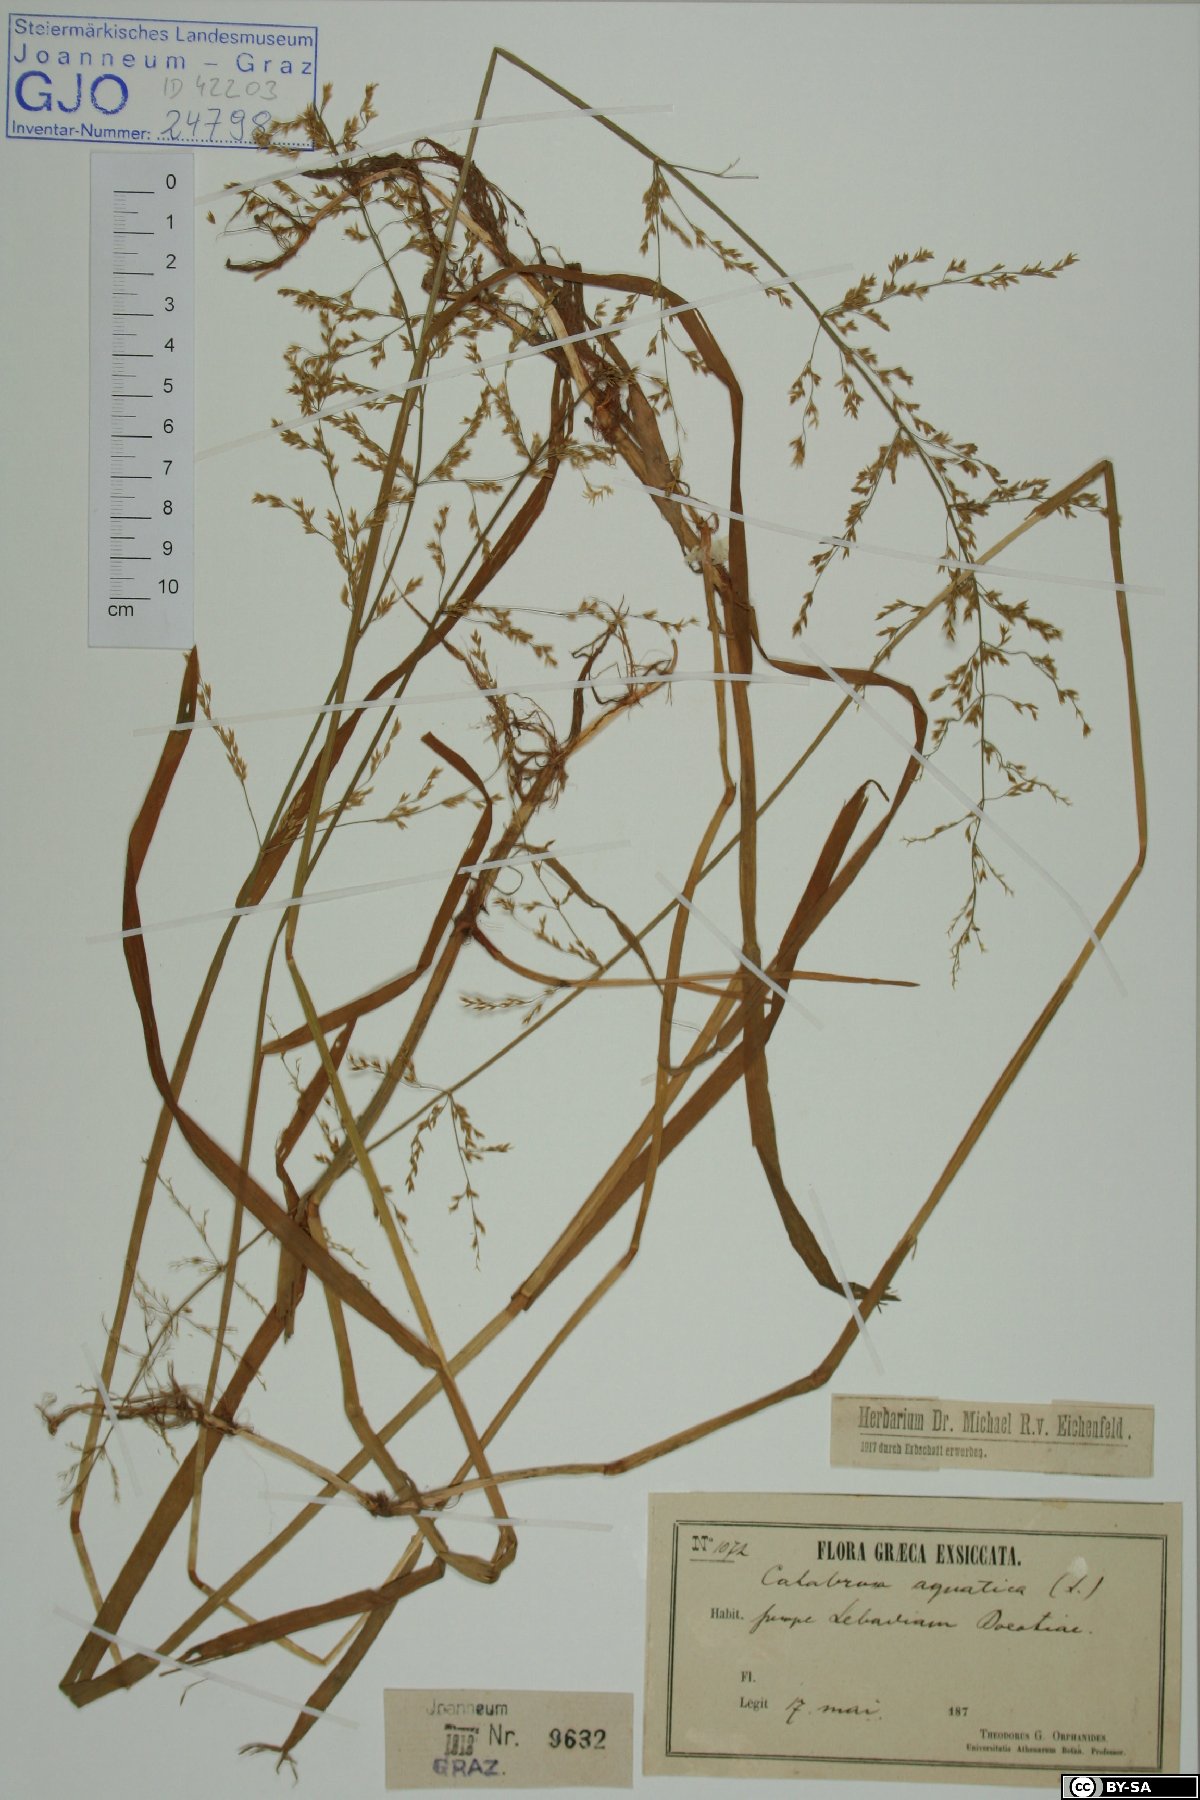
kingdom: Plantae
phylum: Tracheophyta
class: Liliopsida
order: Poales
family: Poaceae
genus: Catabrosa
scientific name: Catabrosa aquatica
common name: Whorl-grass
